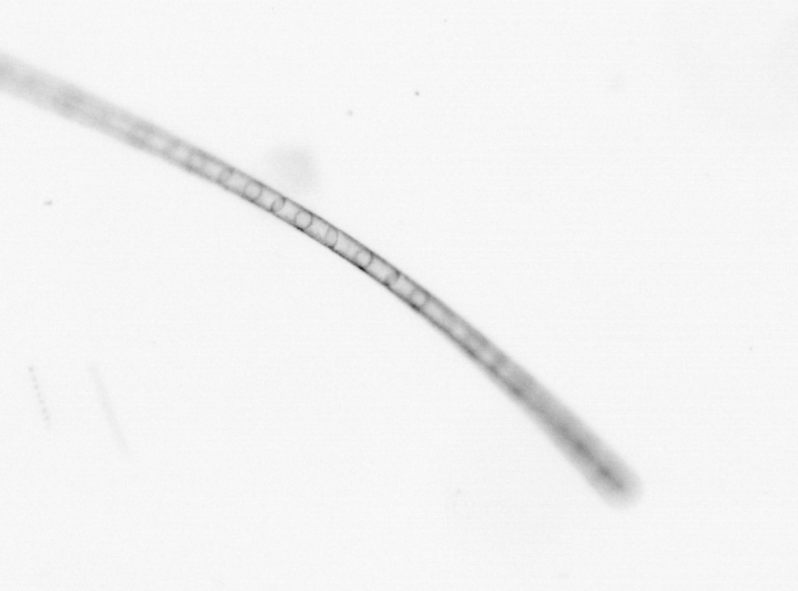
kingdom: Chromista
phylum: Ochrophyta
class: Bacillariophyceae
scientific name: Bacillariophyceae
